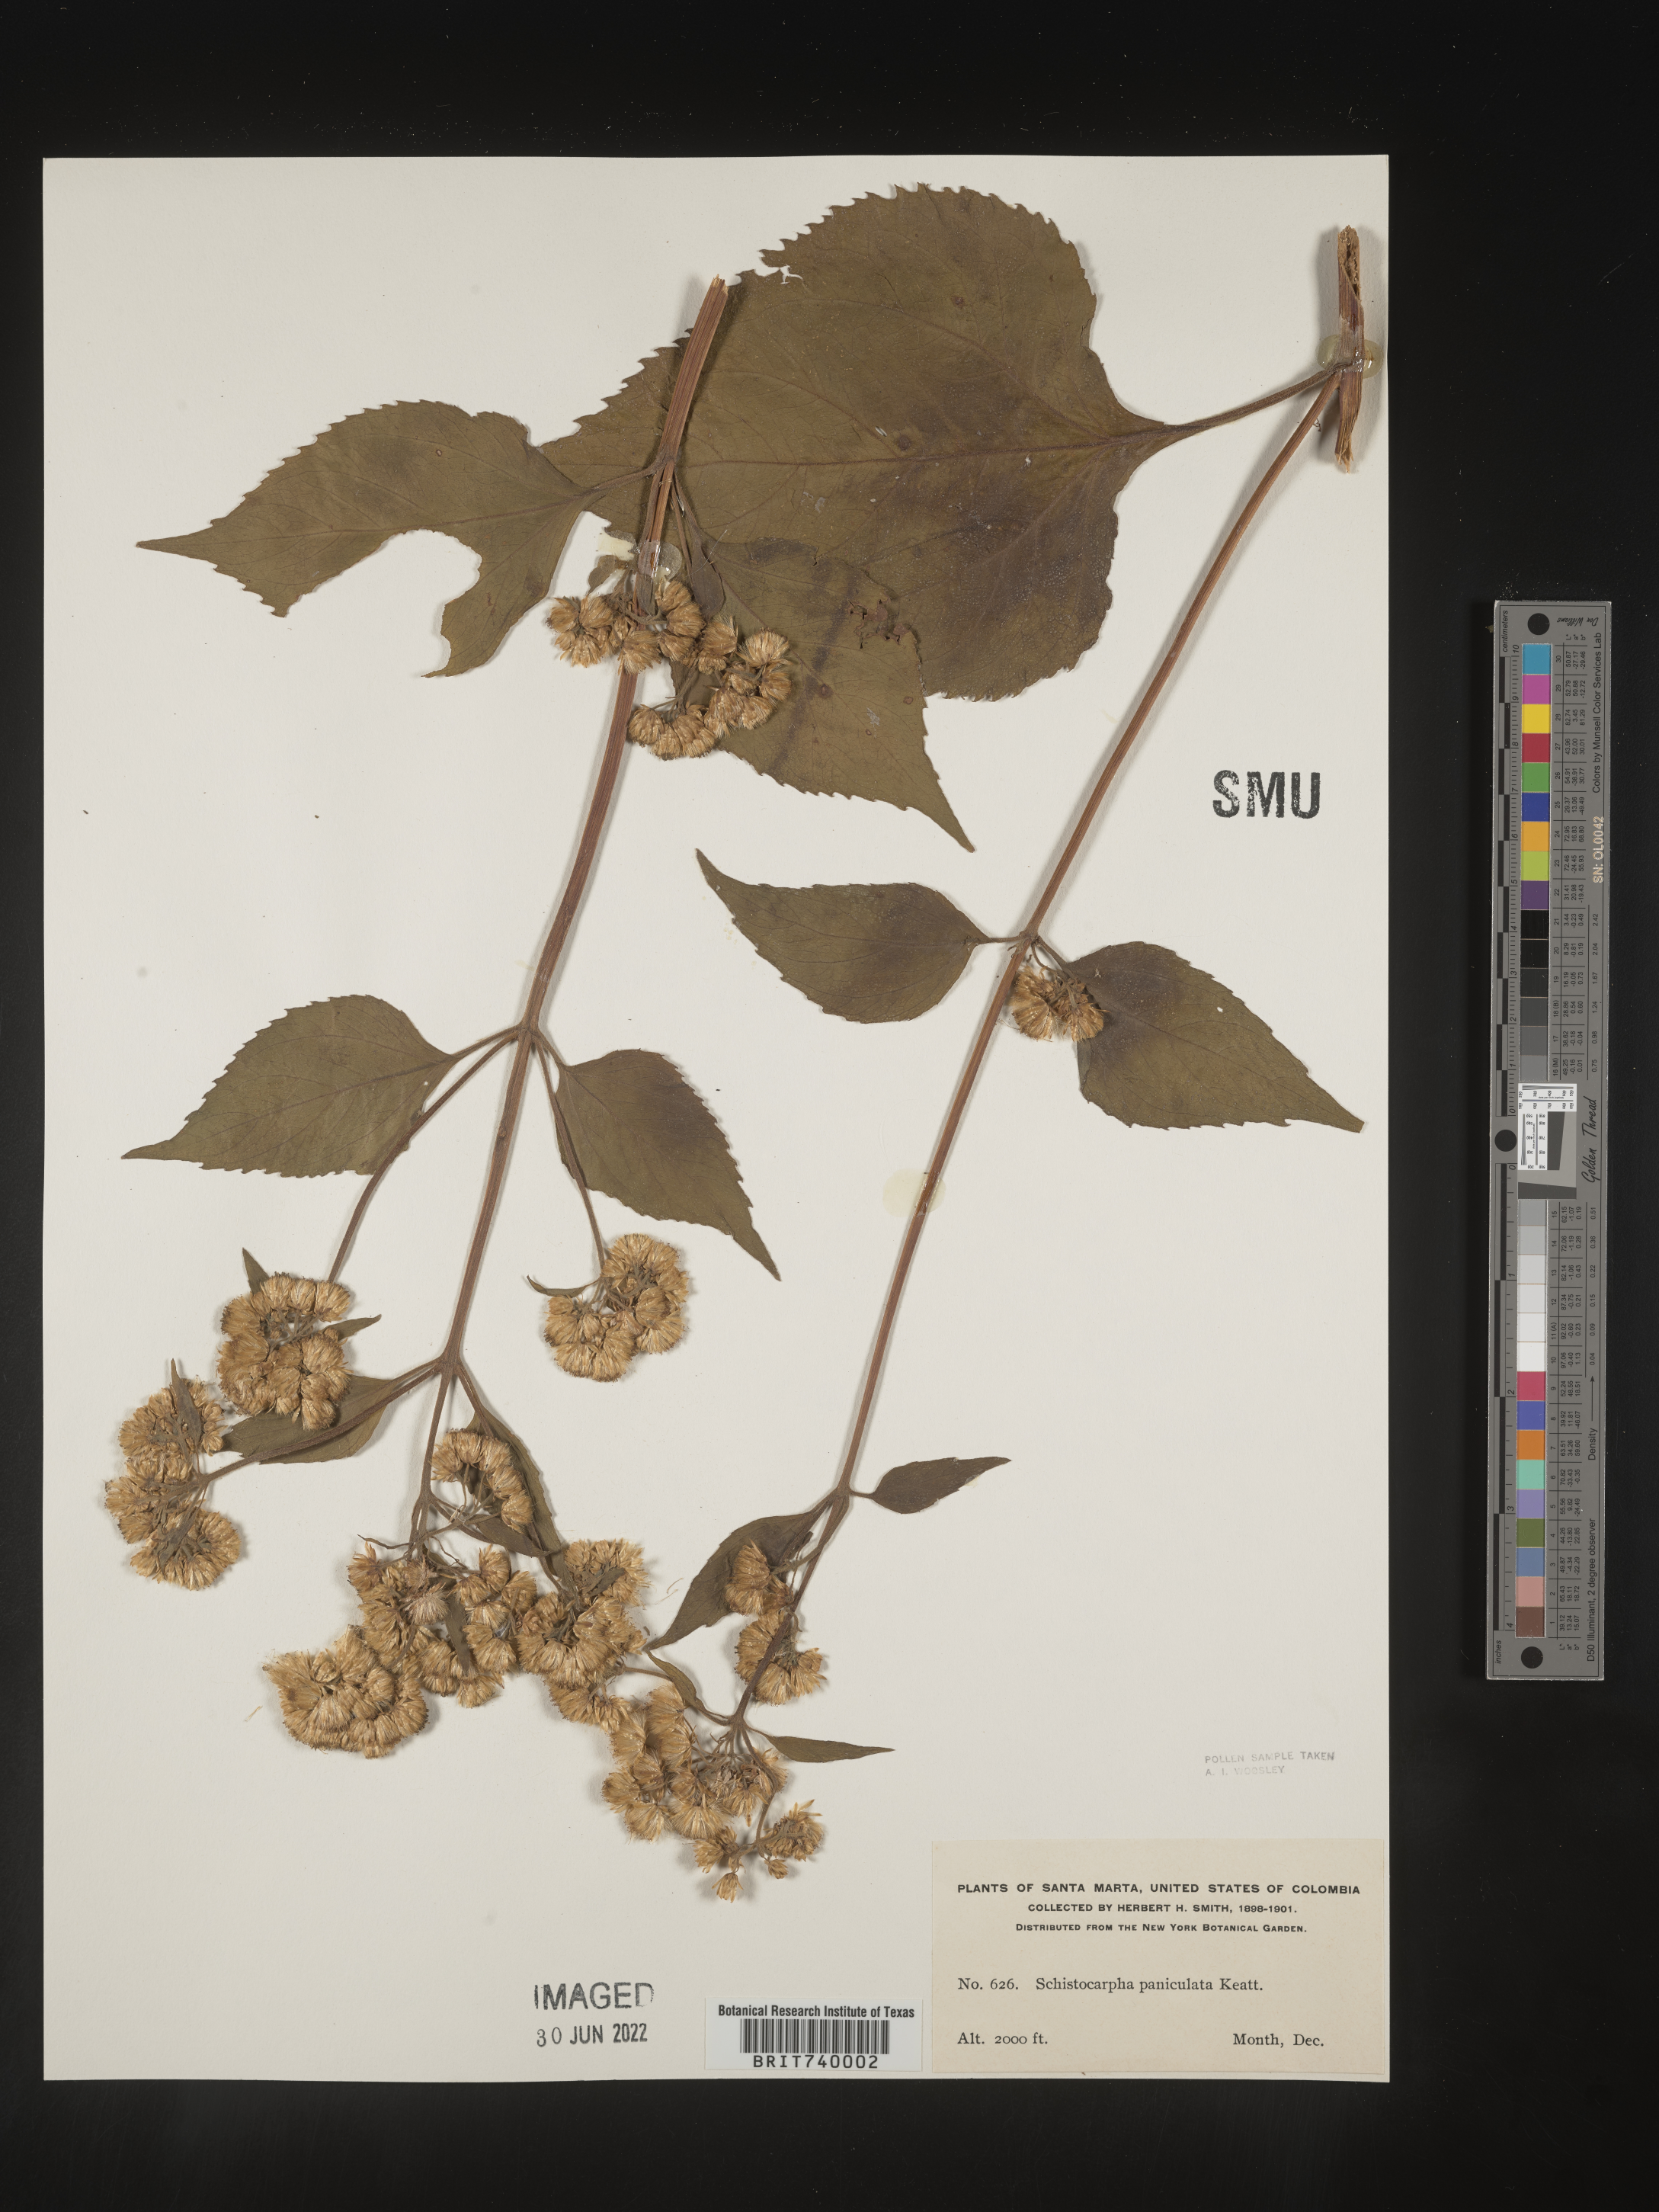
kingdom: Plantae
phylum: Tracheophyta
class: Magnoliopsida
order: Asterales
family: Asteraceae
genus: Schistocarpha
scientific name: Schistocarpha
